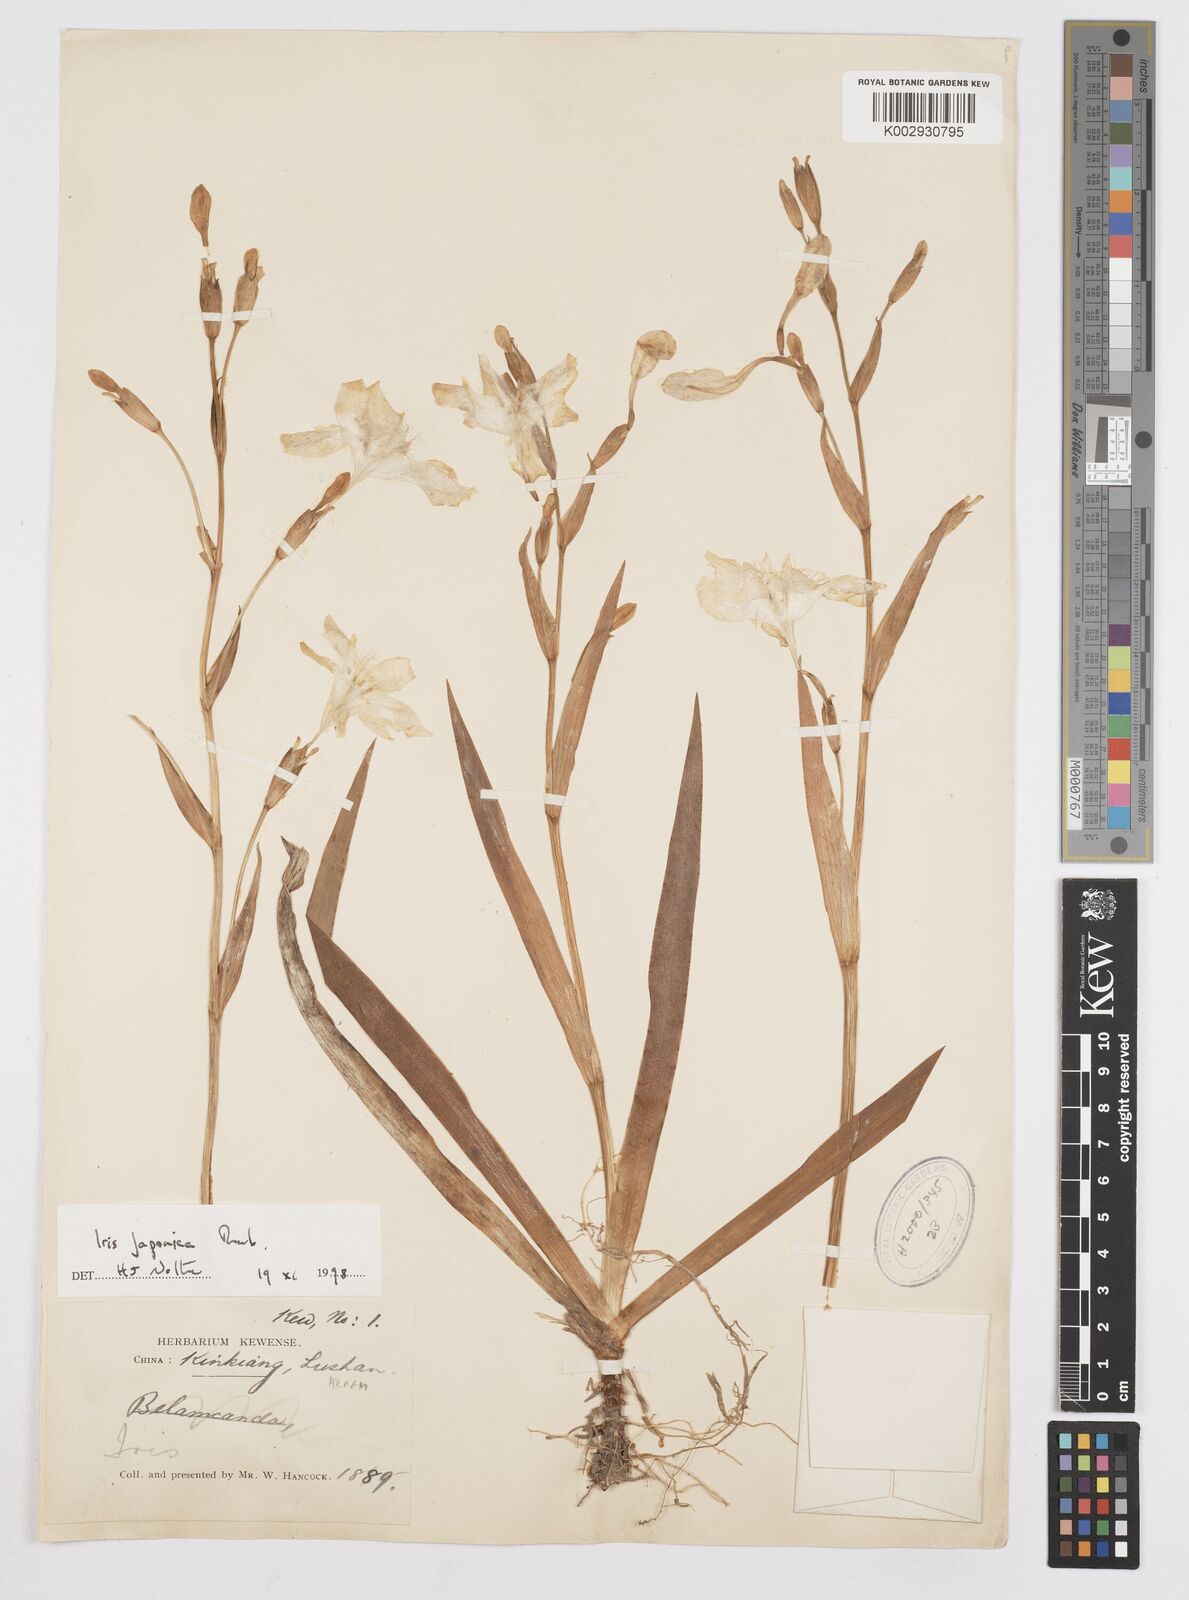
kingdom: Plantae
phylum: Tracheophyta
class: Liliopsida
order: Asparagales
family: Iridaceae
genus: Iris
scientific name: Iris japonica
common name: Butterfly-flower
